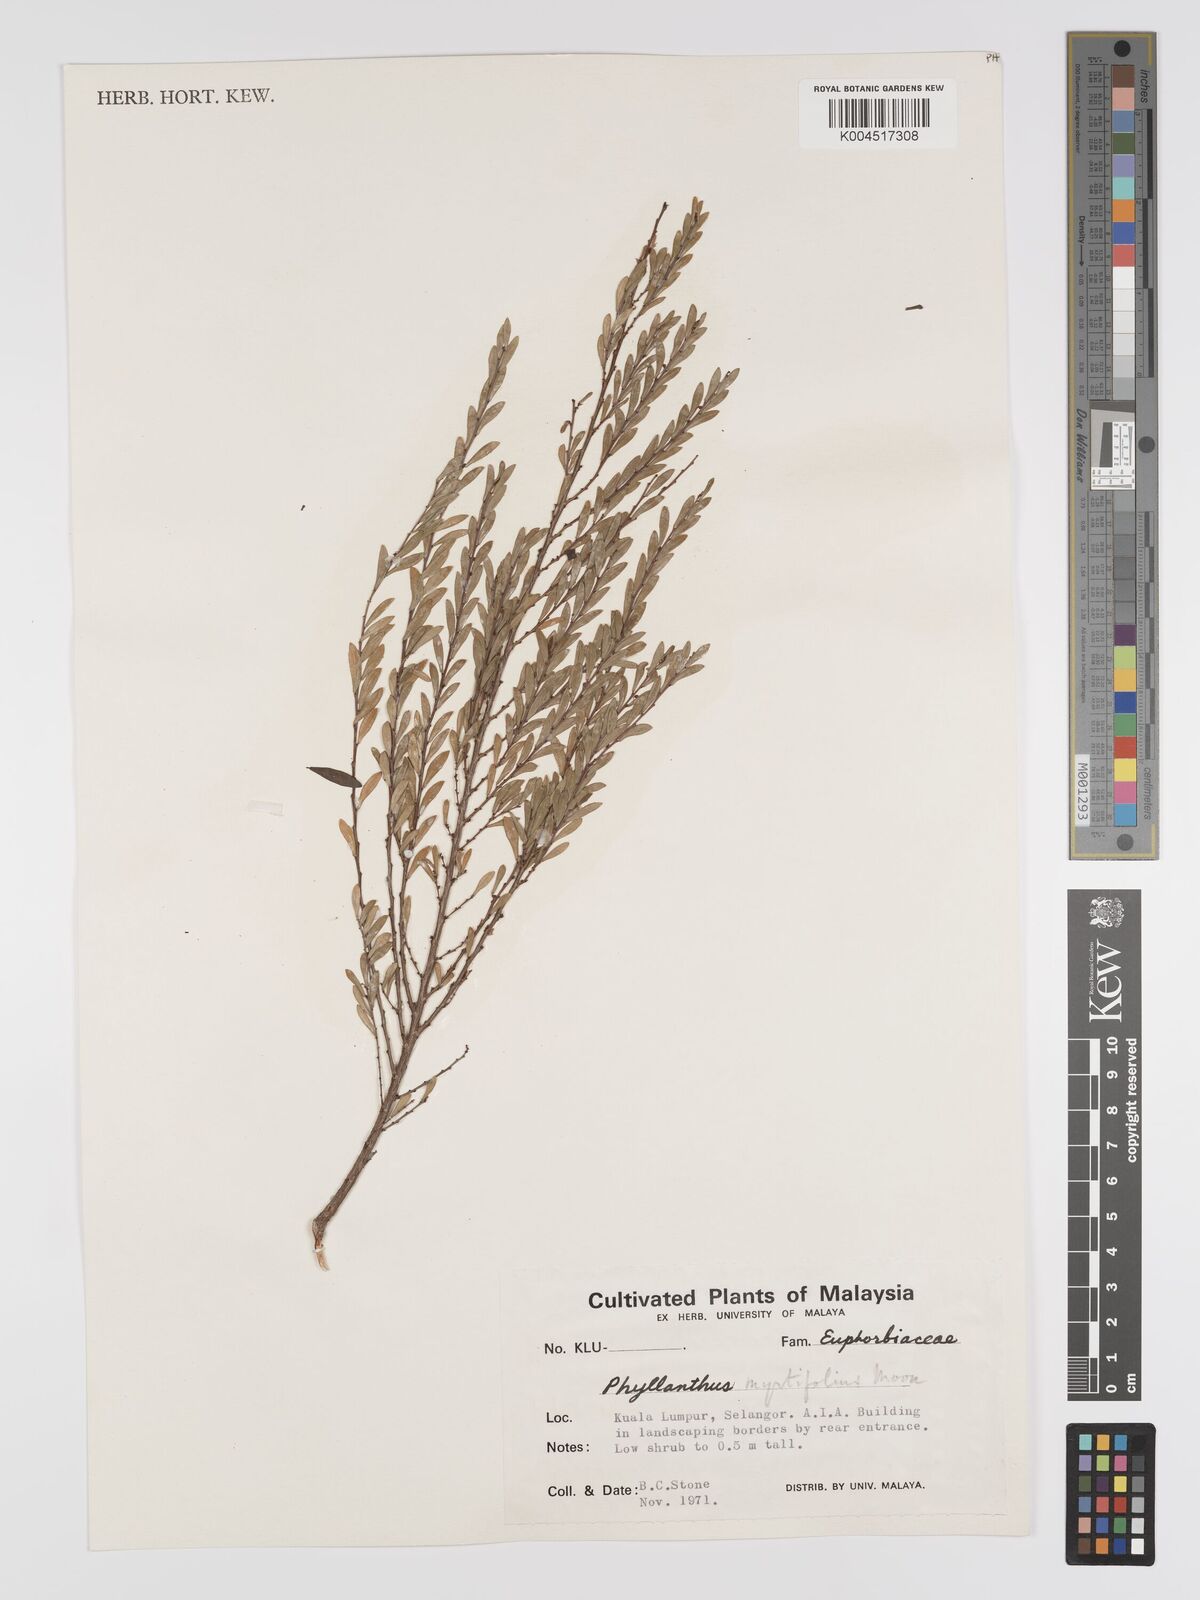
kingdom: Plantae
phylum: Tracheophyta
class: Magnoliopsida
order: Malpighiales
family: Phyllanthaceae
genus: Phyllanthus
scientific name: Phyllanthus myrtifolius
